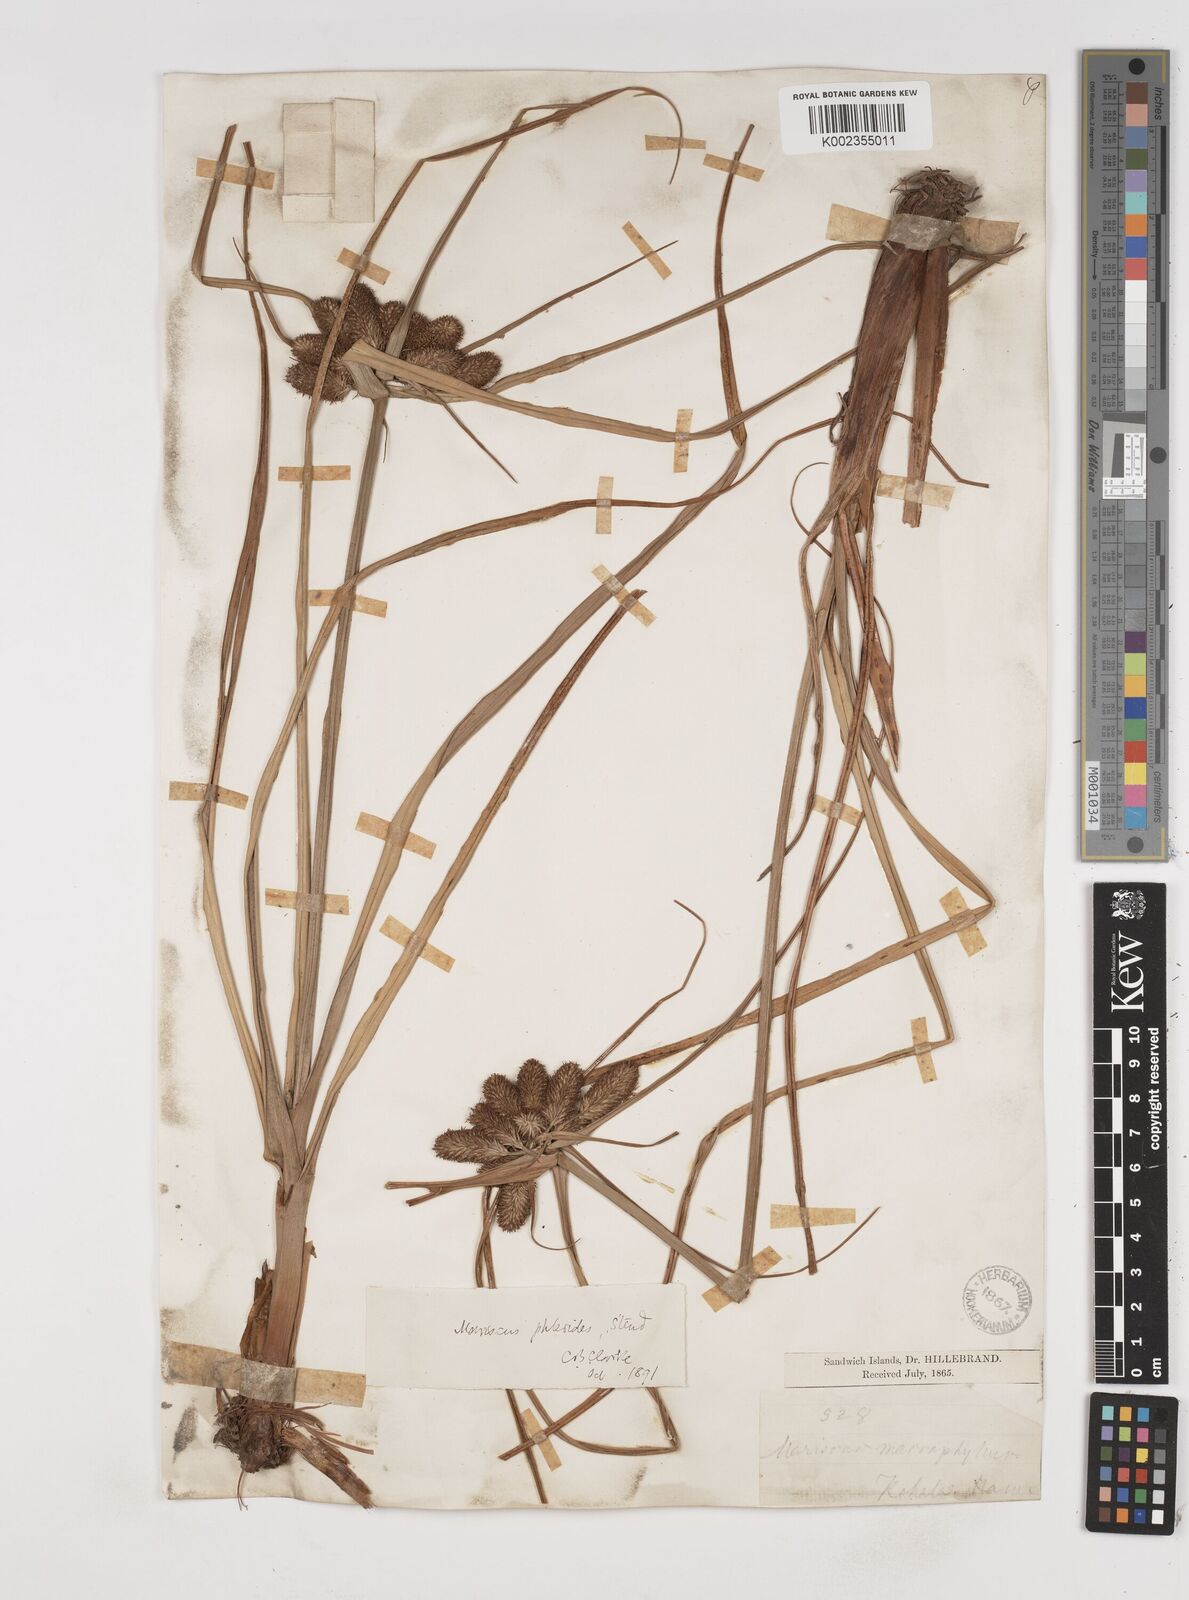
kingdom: Plantae
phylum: Tracheophyta
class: Liliopsida
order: Poales
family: Cyperaceae
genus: Cyperus
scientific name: Cyperus phleoides
